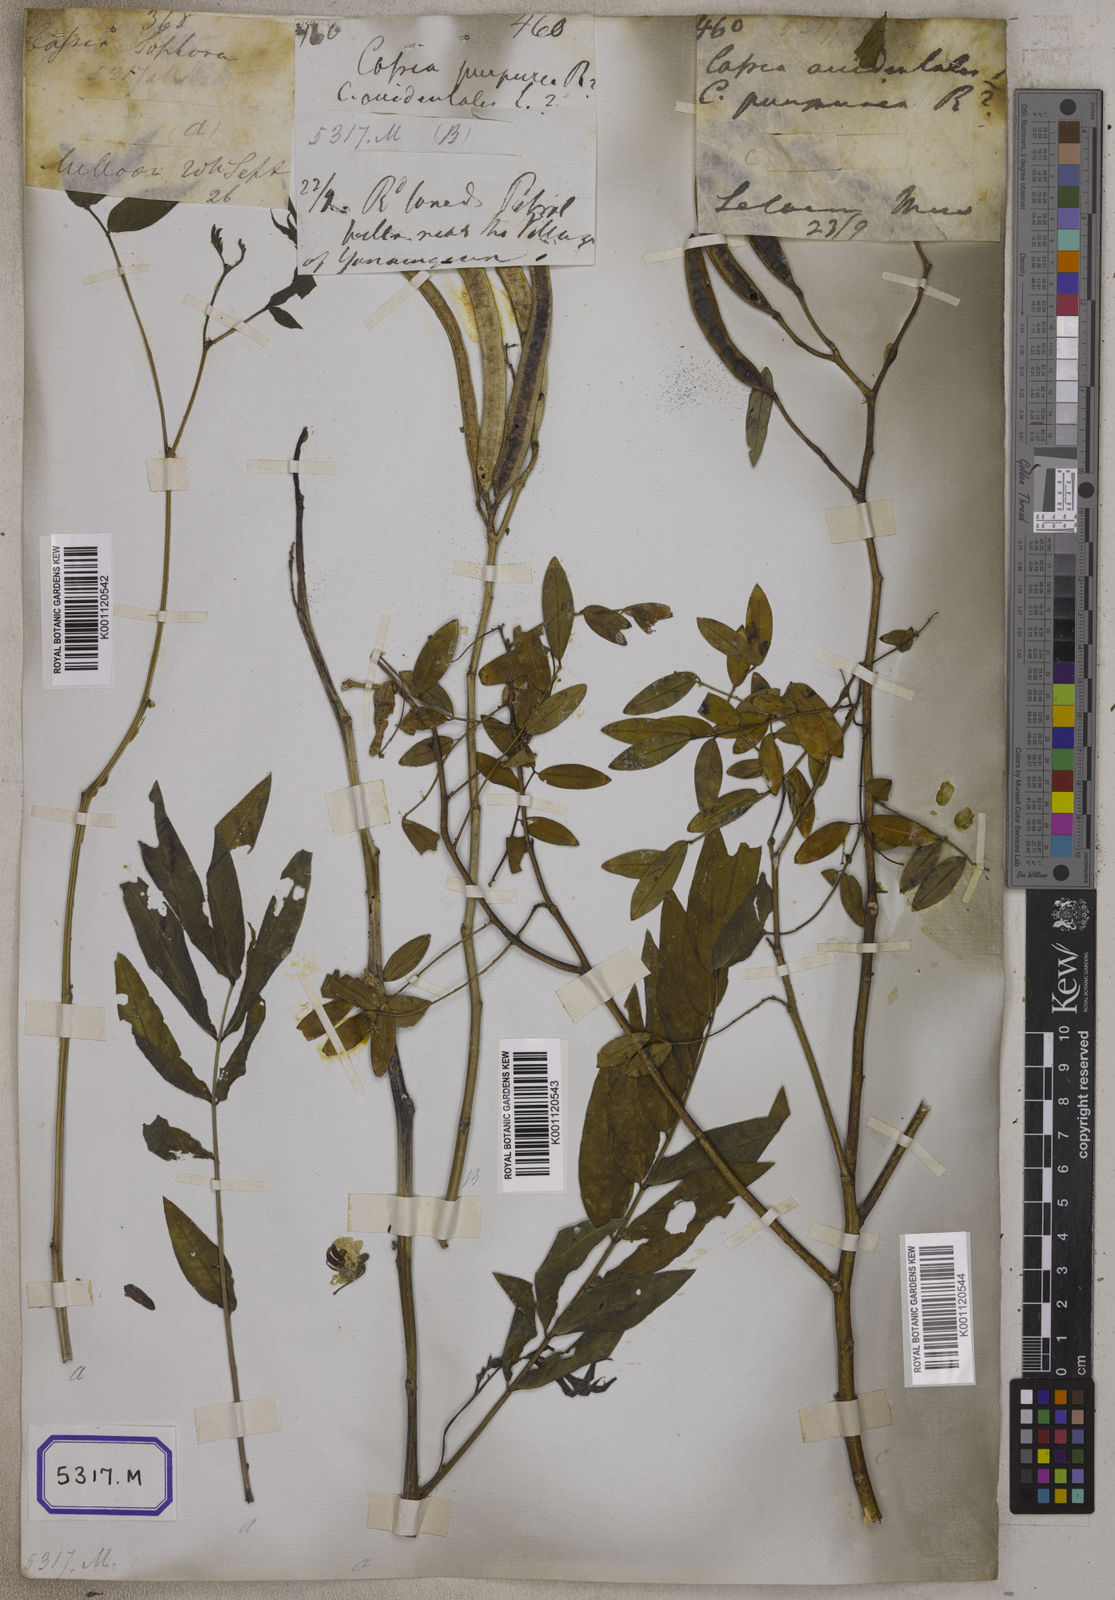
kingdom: Plantae
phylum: Tracheophyta
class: Magnoliopsida
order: Fabales
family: Fabaceae
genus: Cassia
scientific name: Cassia
